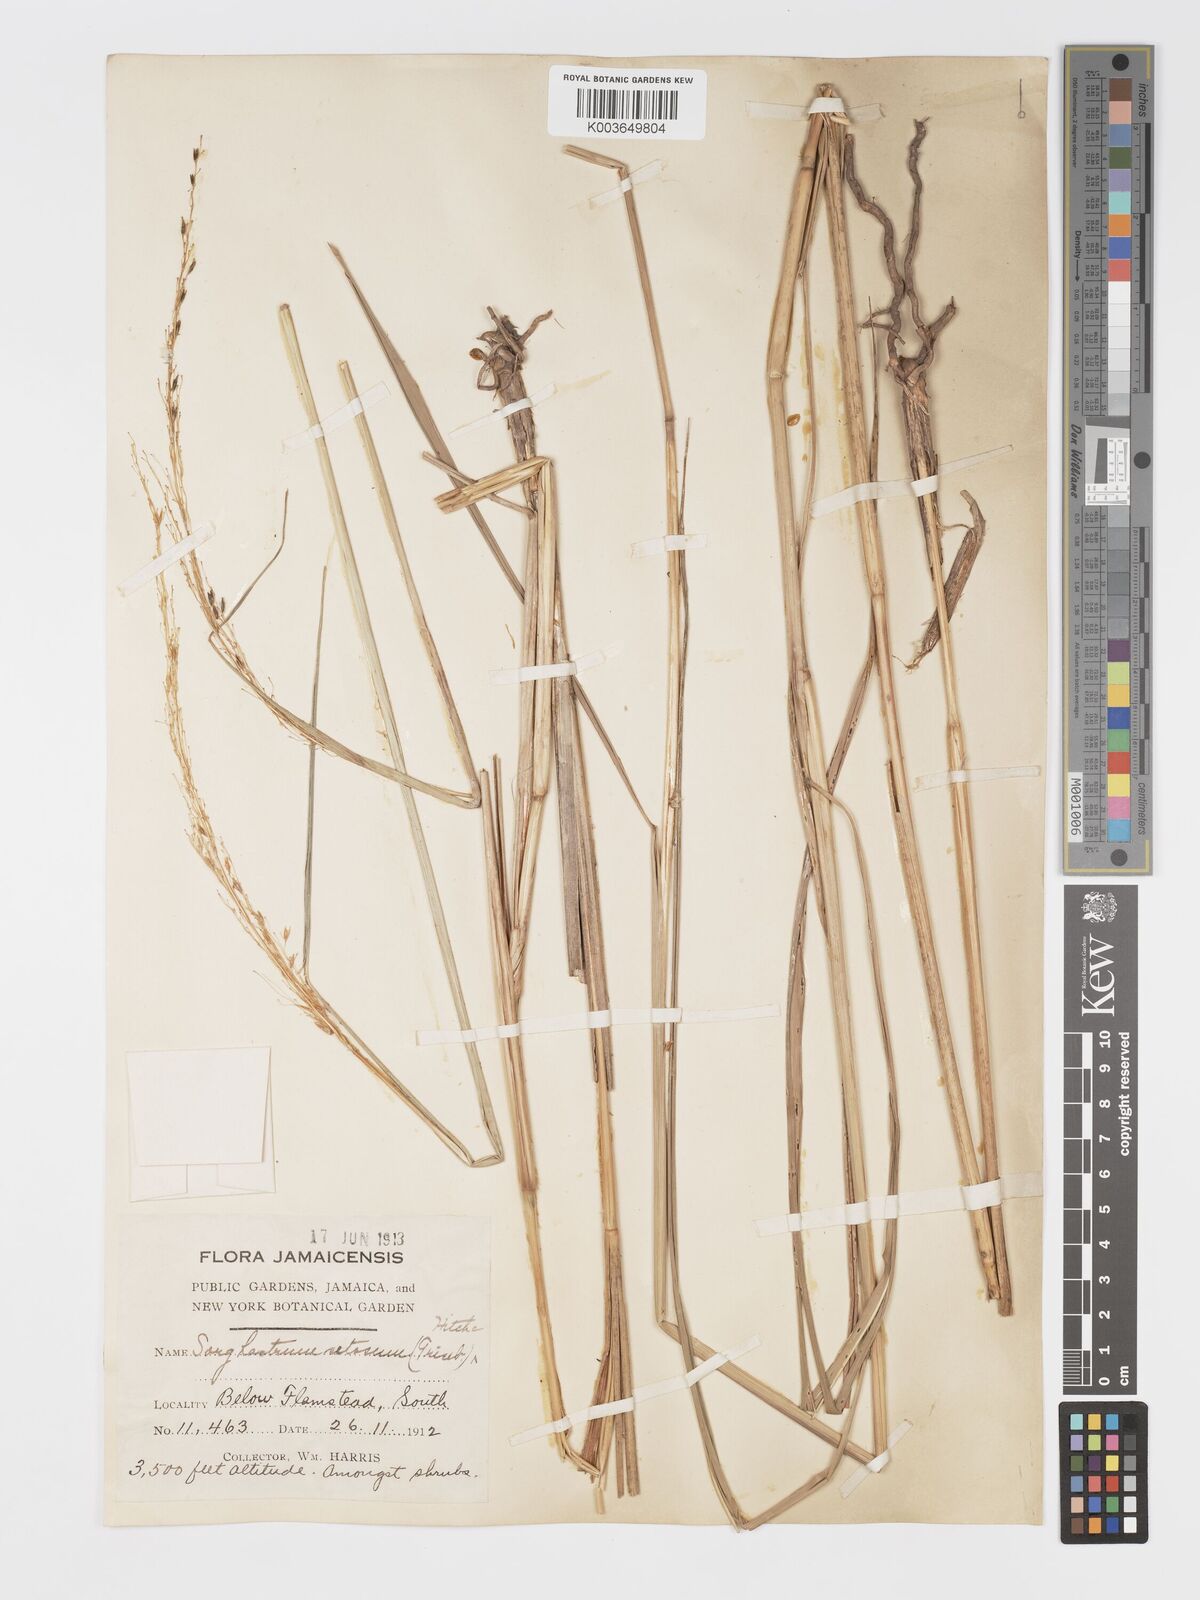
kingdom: Plantae
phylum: Tracheophyta
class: Liliopsida
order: Poales
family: Poaceae
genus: Sorghastrum
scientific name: Sorghastrum setosum
